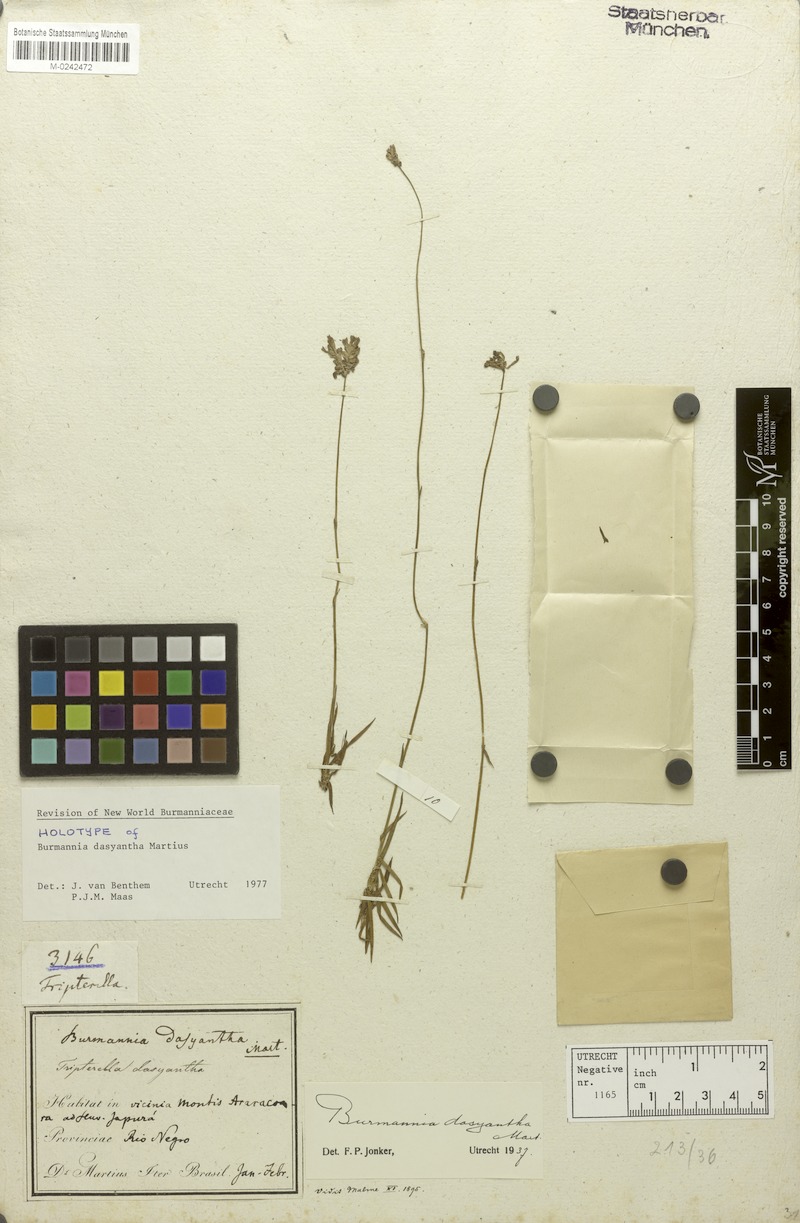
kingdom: Plantae
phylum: Tracheophyta
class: Liliopsida
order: Dioscoreales
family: Burmanniaceae
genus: Burmannia
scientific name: Burmannia dasyantha
